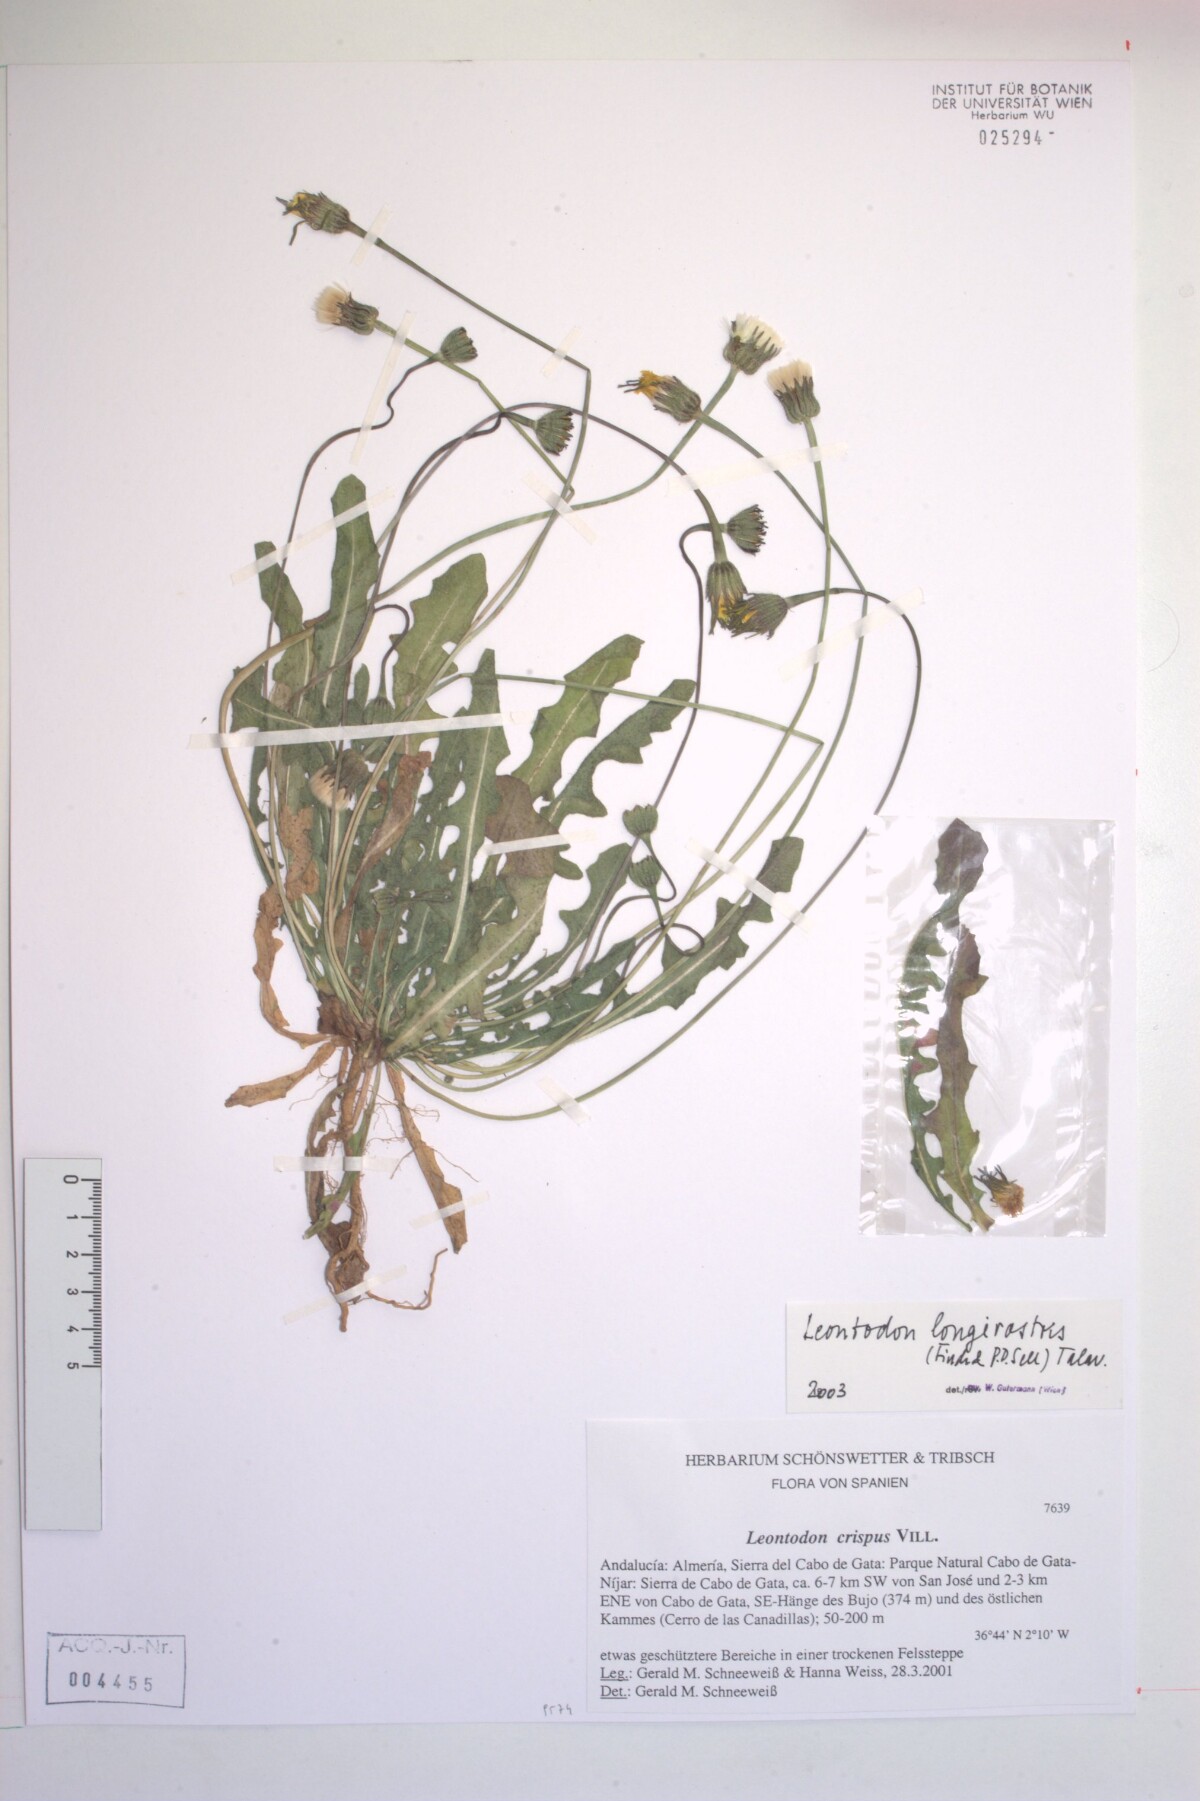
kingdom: Plantae
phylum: Tracheophyta
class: Magnoliopsida
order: Asterales
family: Asteraceae
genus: Thrincia
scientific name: Thrincia hispida
